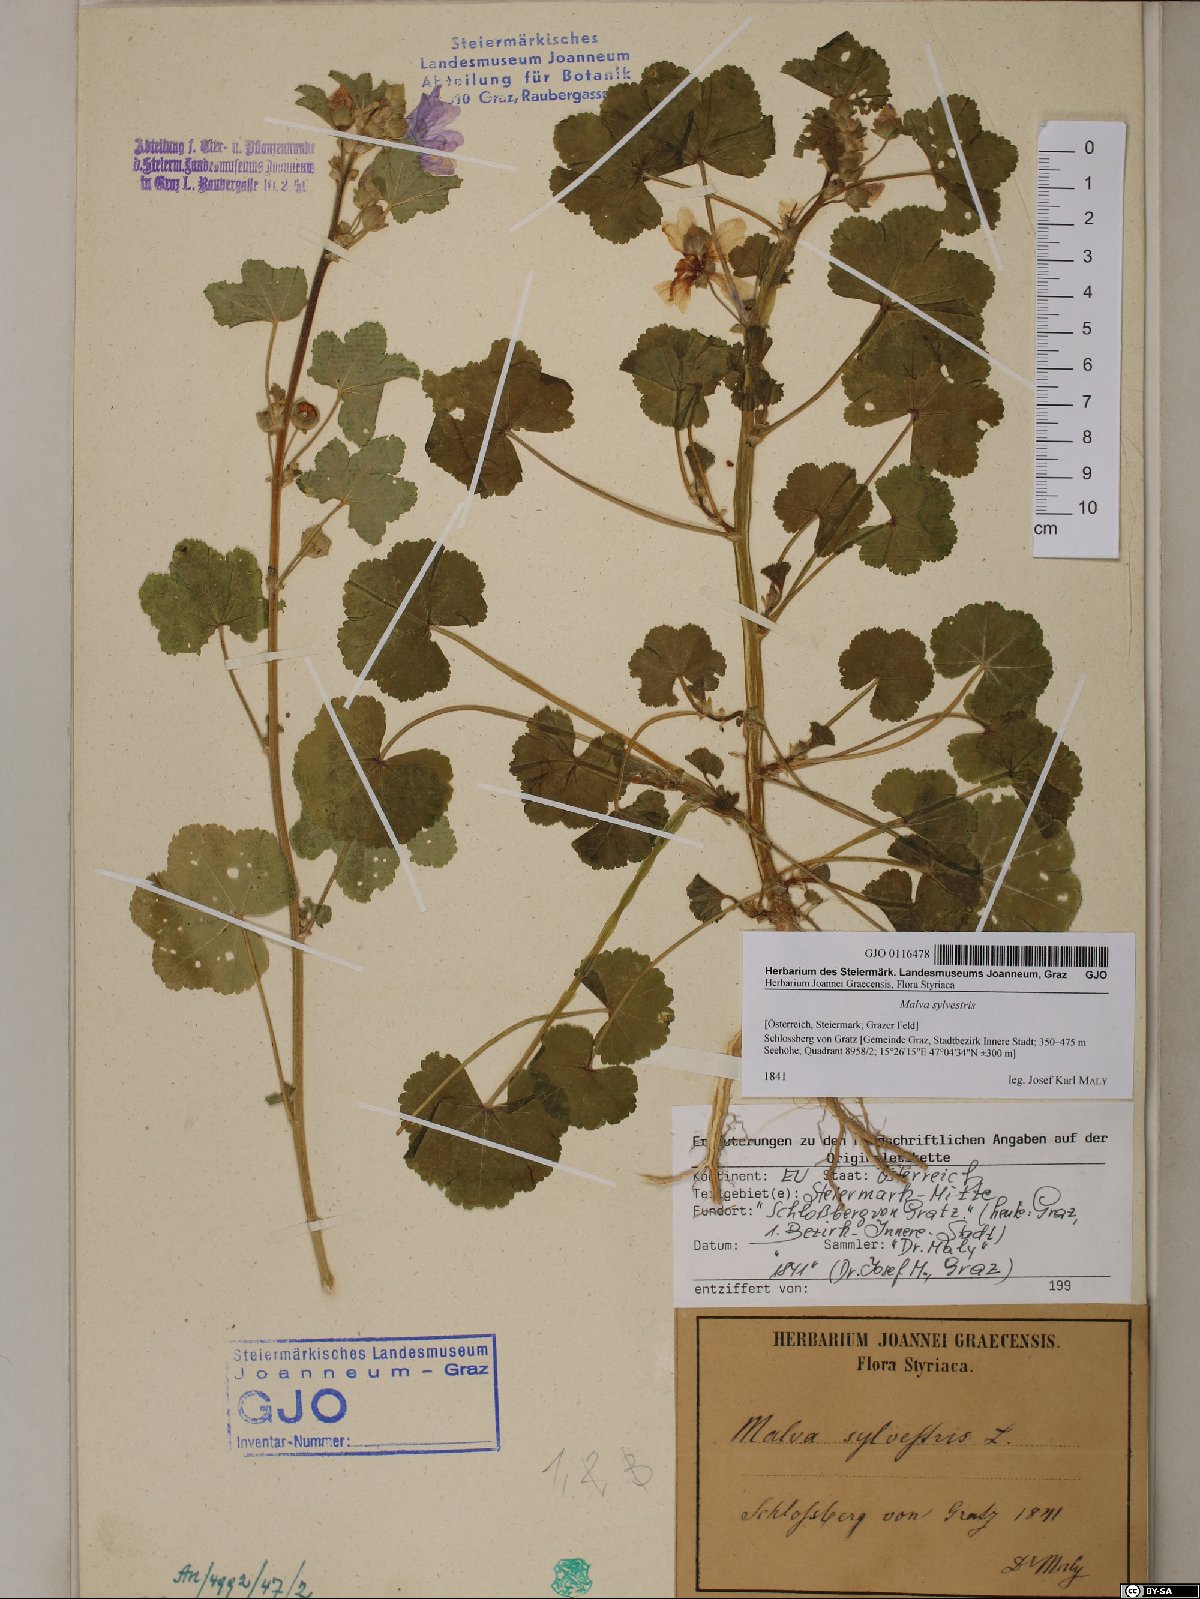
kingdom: Plantae
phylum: Tracheophyta
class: Magnoliopsida
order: Malvales
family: Malvaceae
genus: Malva
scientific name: Malva sylvestris
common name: Common mallow
